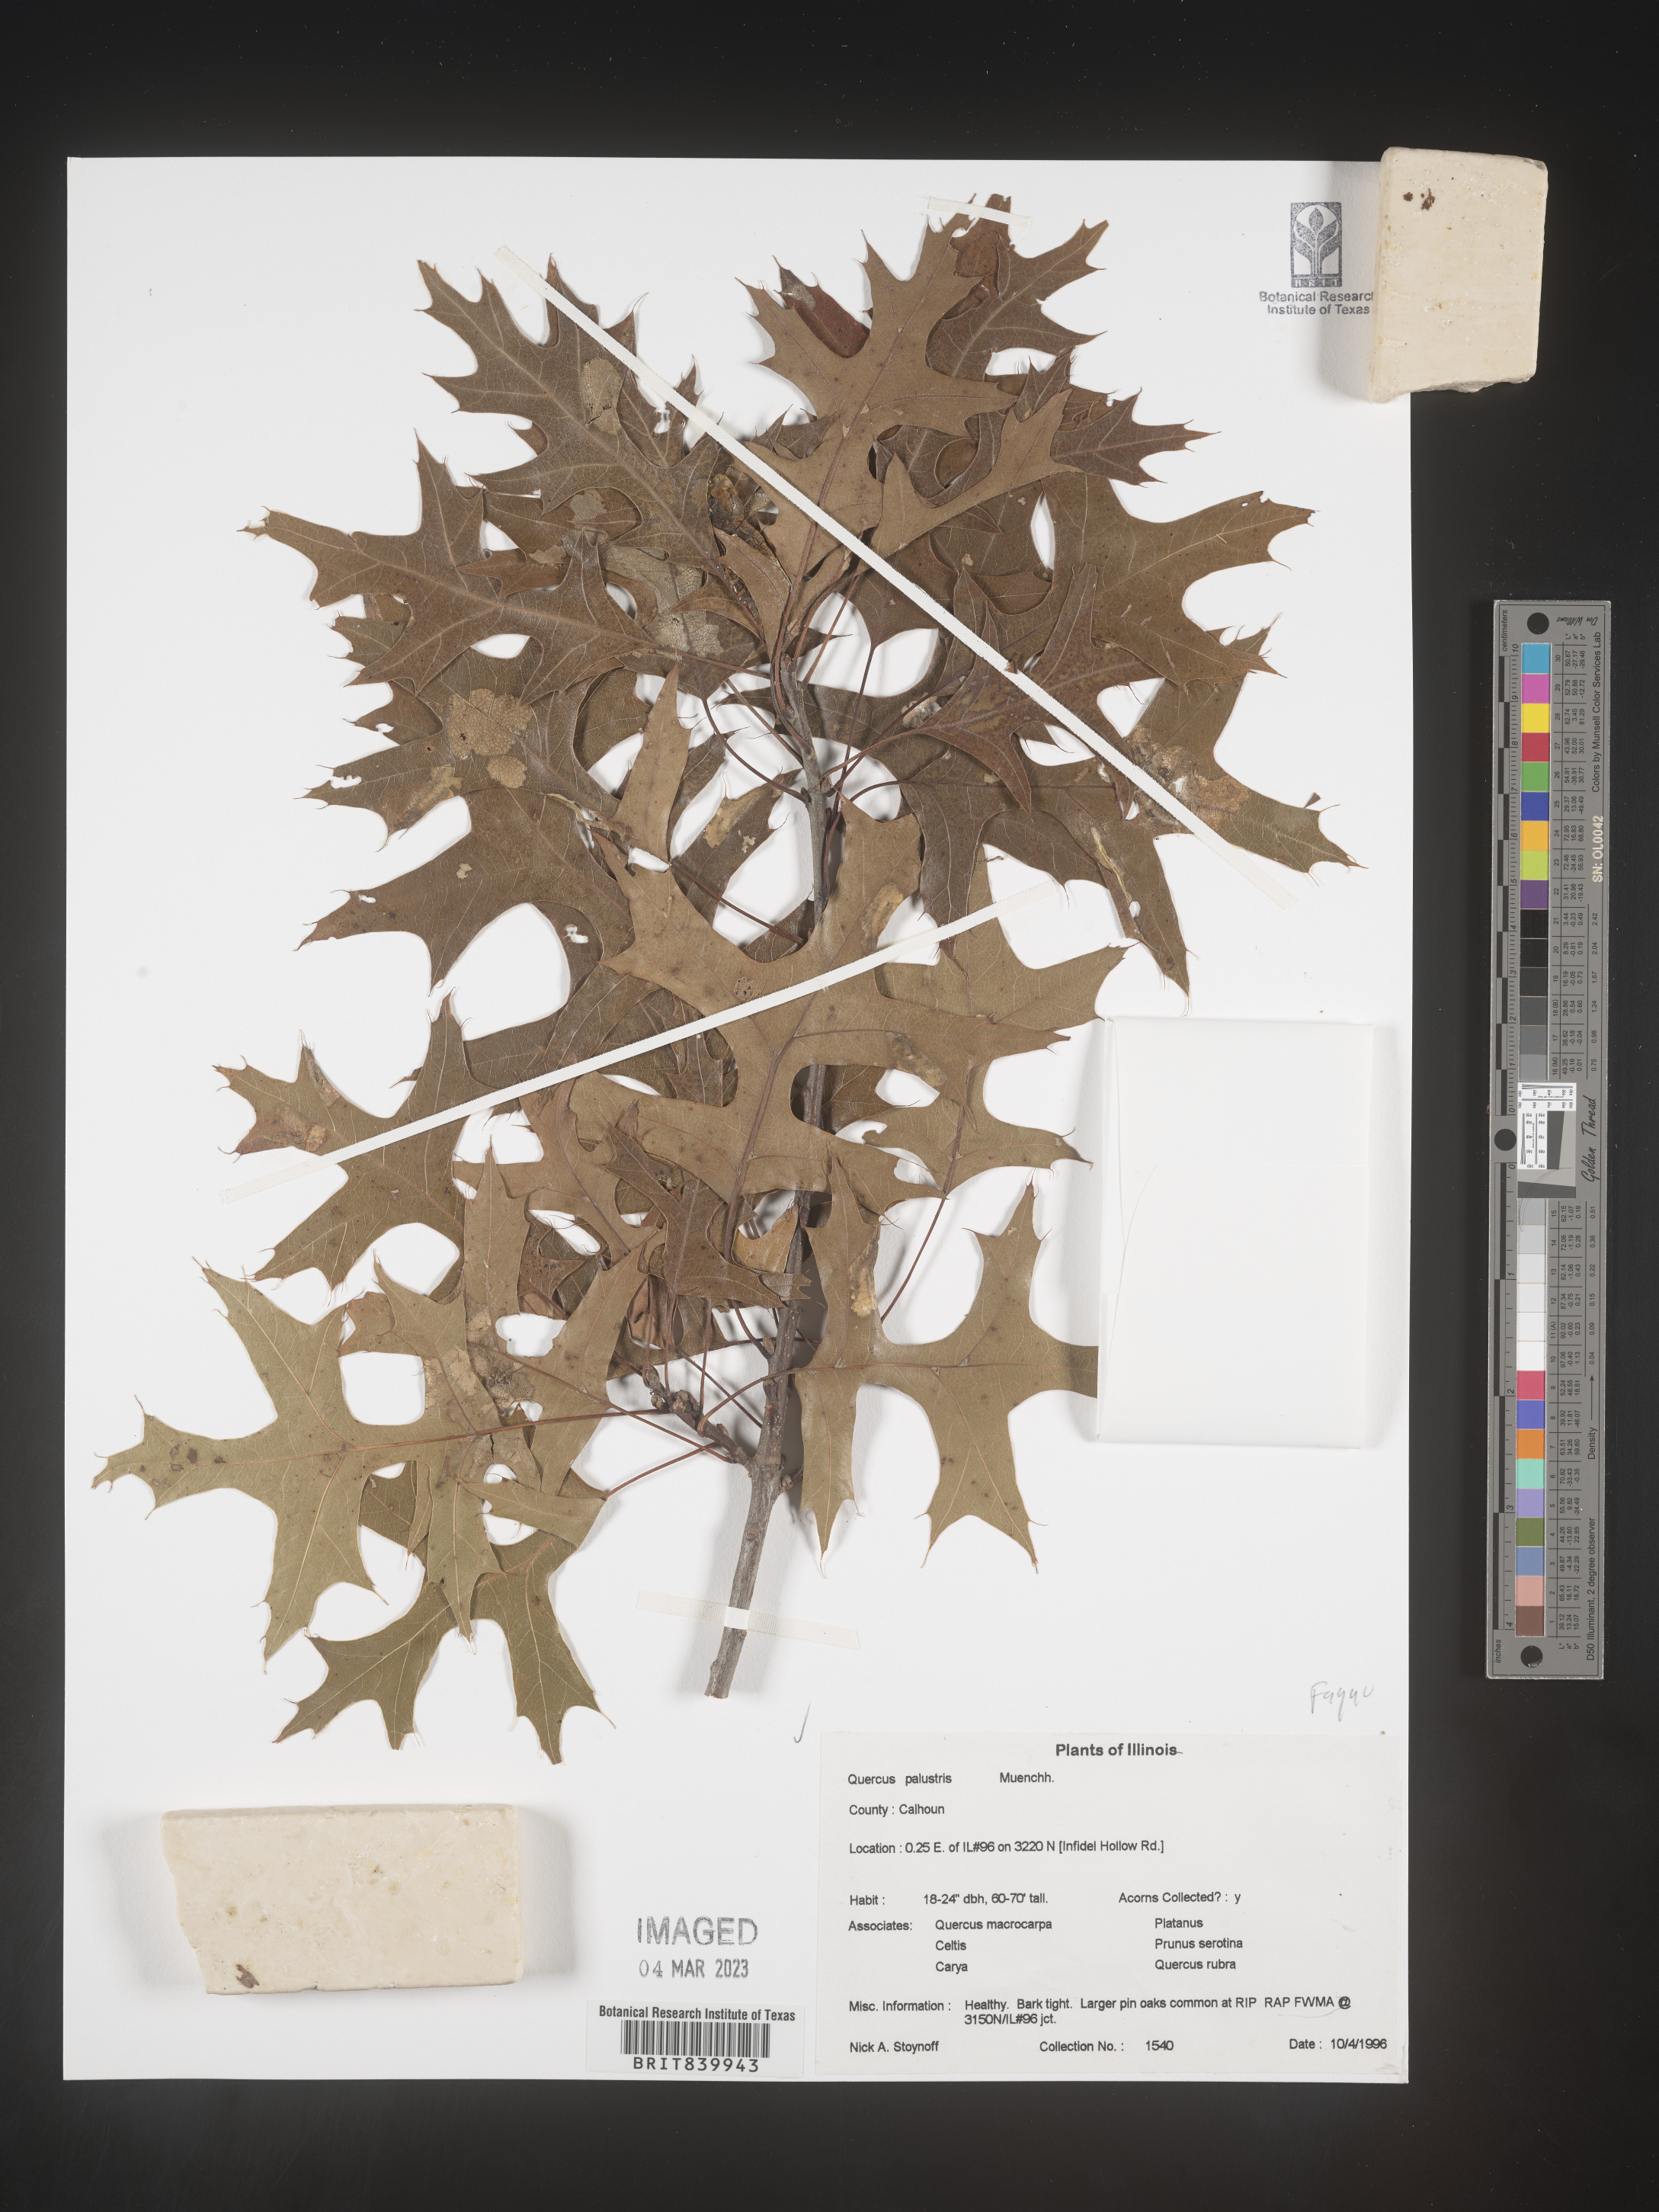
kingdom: Plantae
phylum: Tracheophyta
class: Magnoliopsida
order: Fagales
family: Fagaceae
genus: Quercus
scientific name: Quercus palustris
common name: Pin oak
